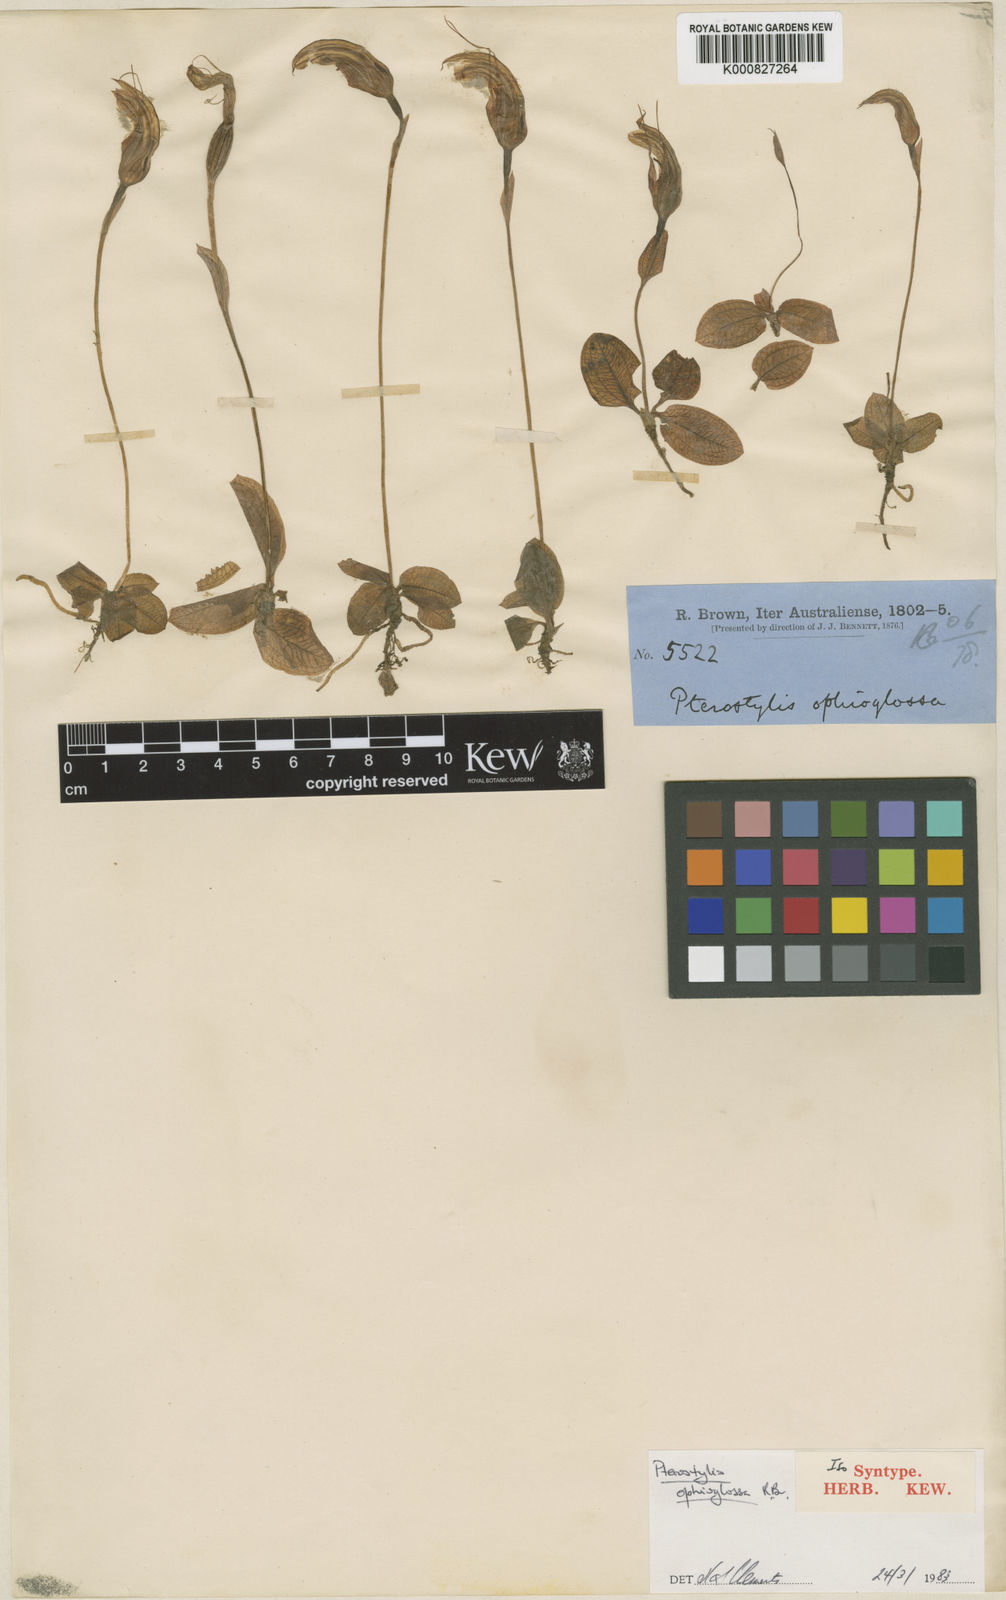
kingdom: Plantae
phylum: Tracheophyta
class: Liliopsida
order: Asparagales
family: Orchidaceae
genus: Pterostylis
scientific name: Pterostylis ophioglossa
